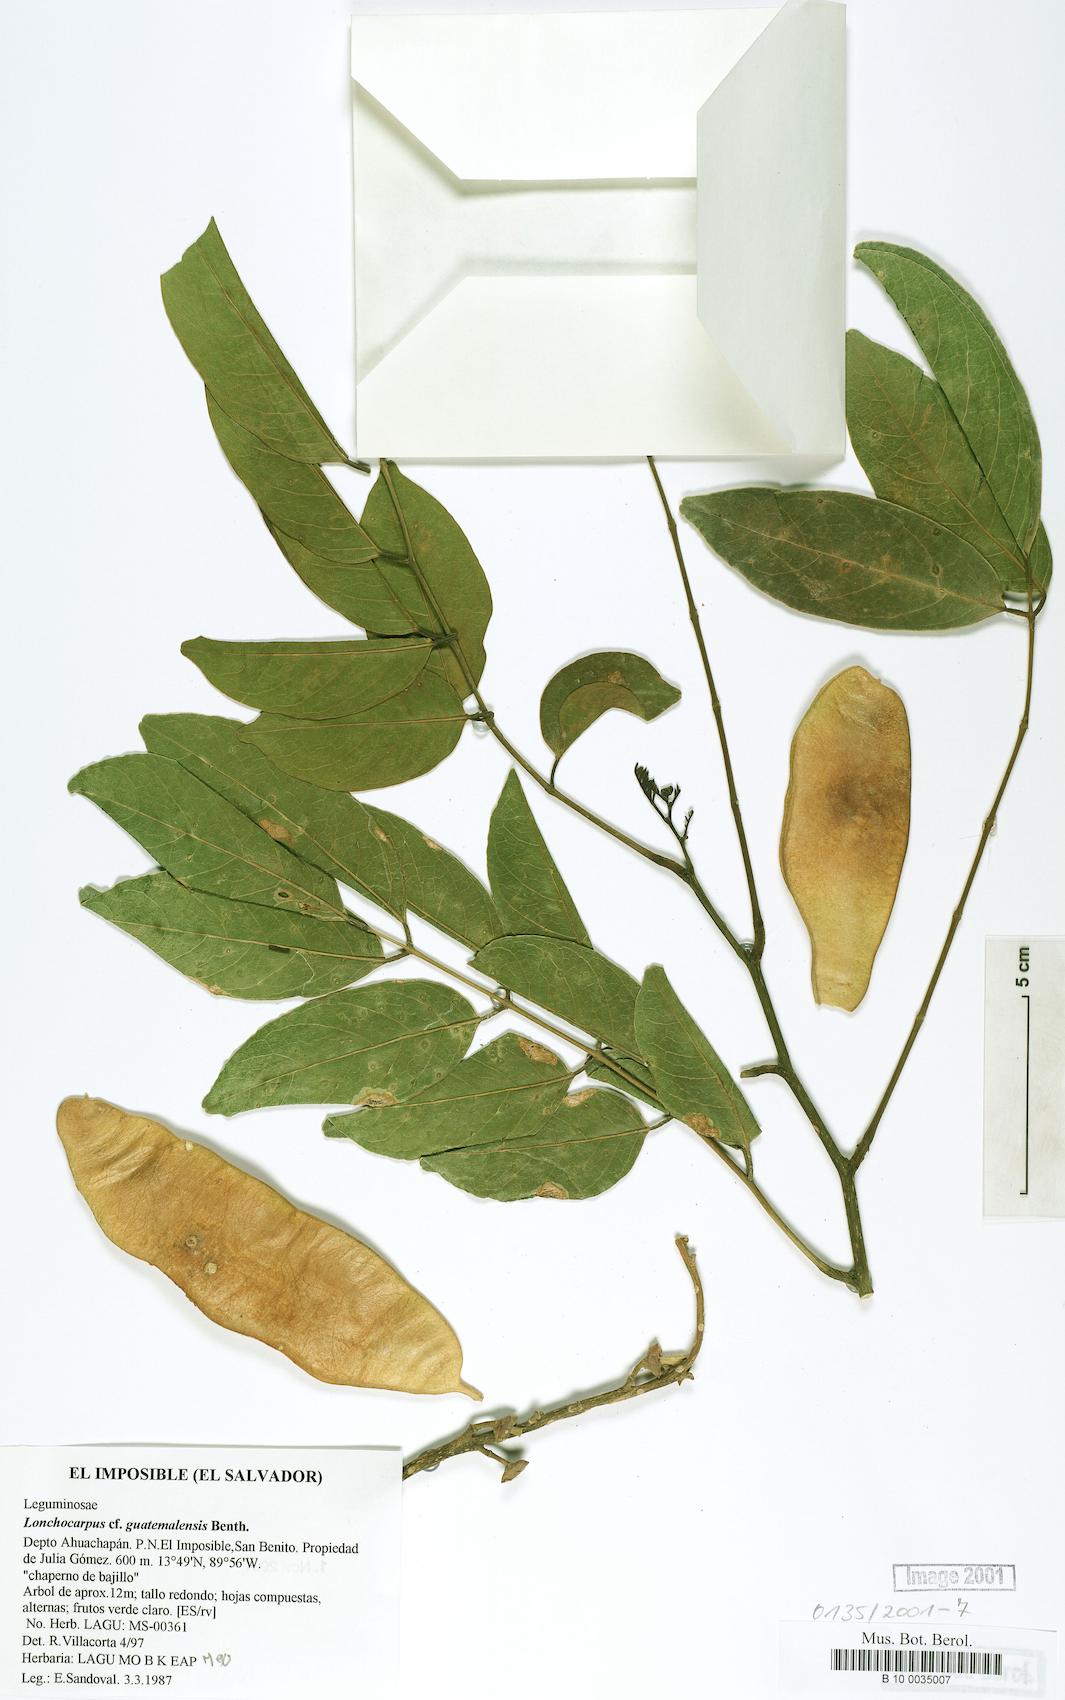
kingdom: Plantae
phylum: Tracheophyta
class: Magnoliopsida
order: Fabales
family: Fabaceae
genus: Lonchocarpus
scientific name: Lonchocarpus guatemalensis
